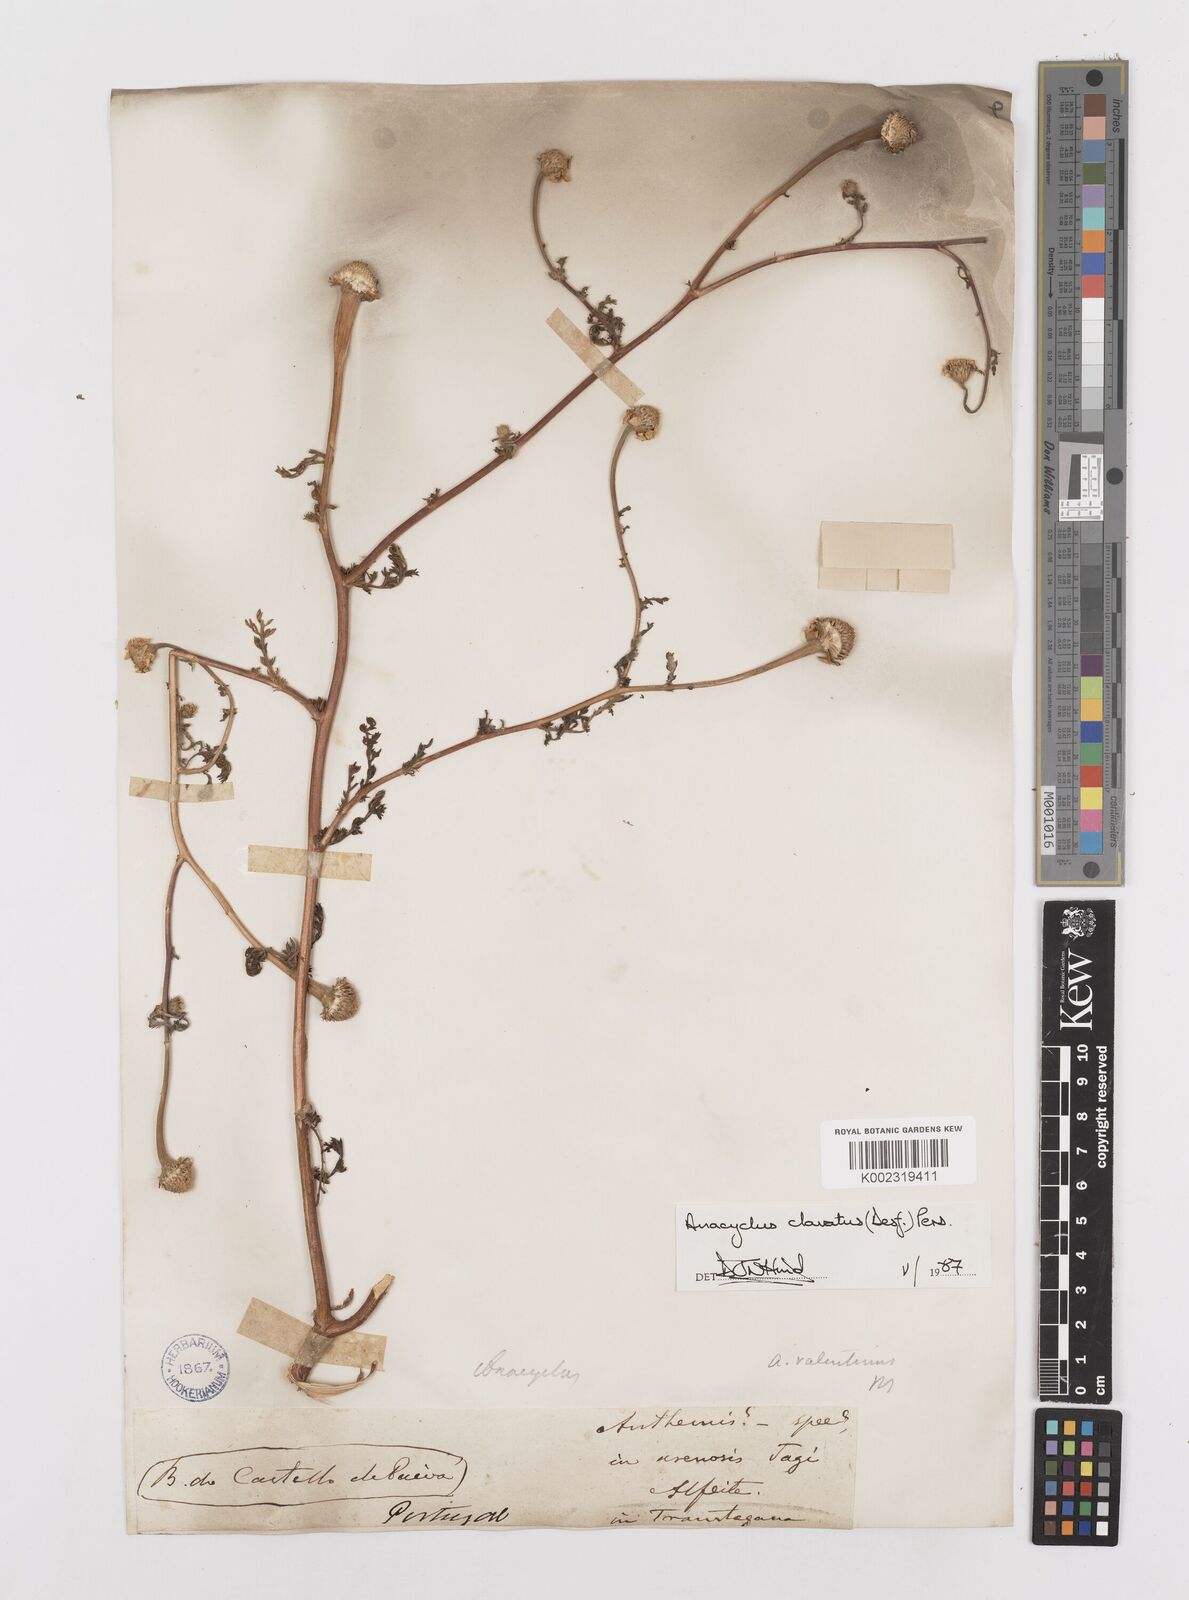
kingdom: Plantae
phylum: Tracheophyta
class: Magnoliopsida
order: Asterales
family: Asteraceae
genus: Anacyclus
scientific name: Anacyclus clavatus
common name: Whitebuttons
